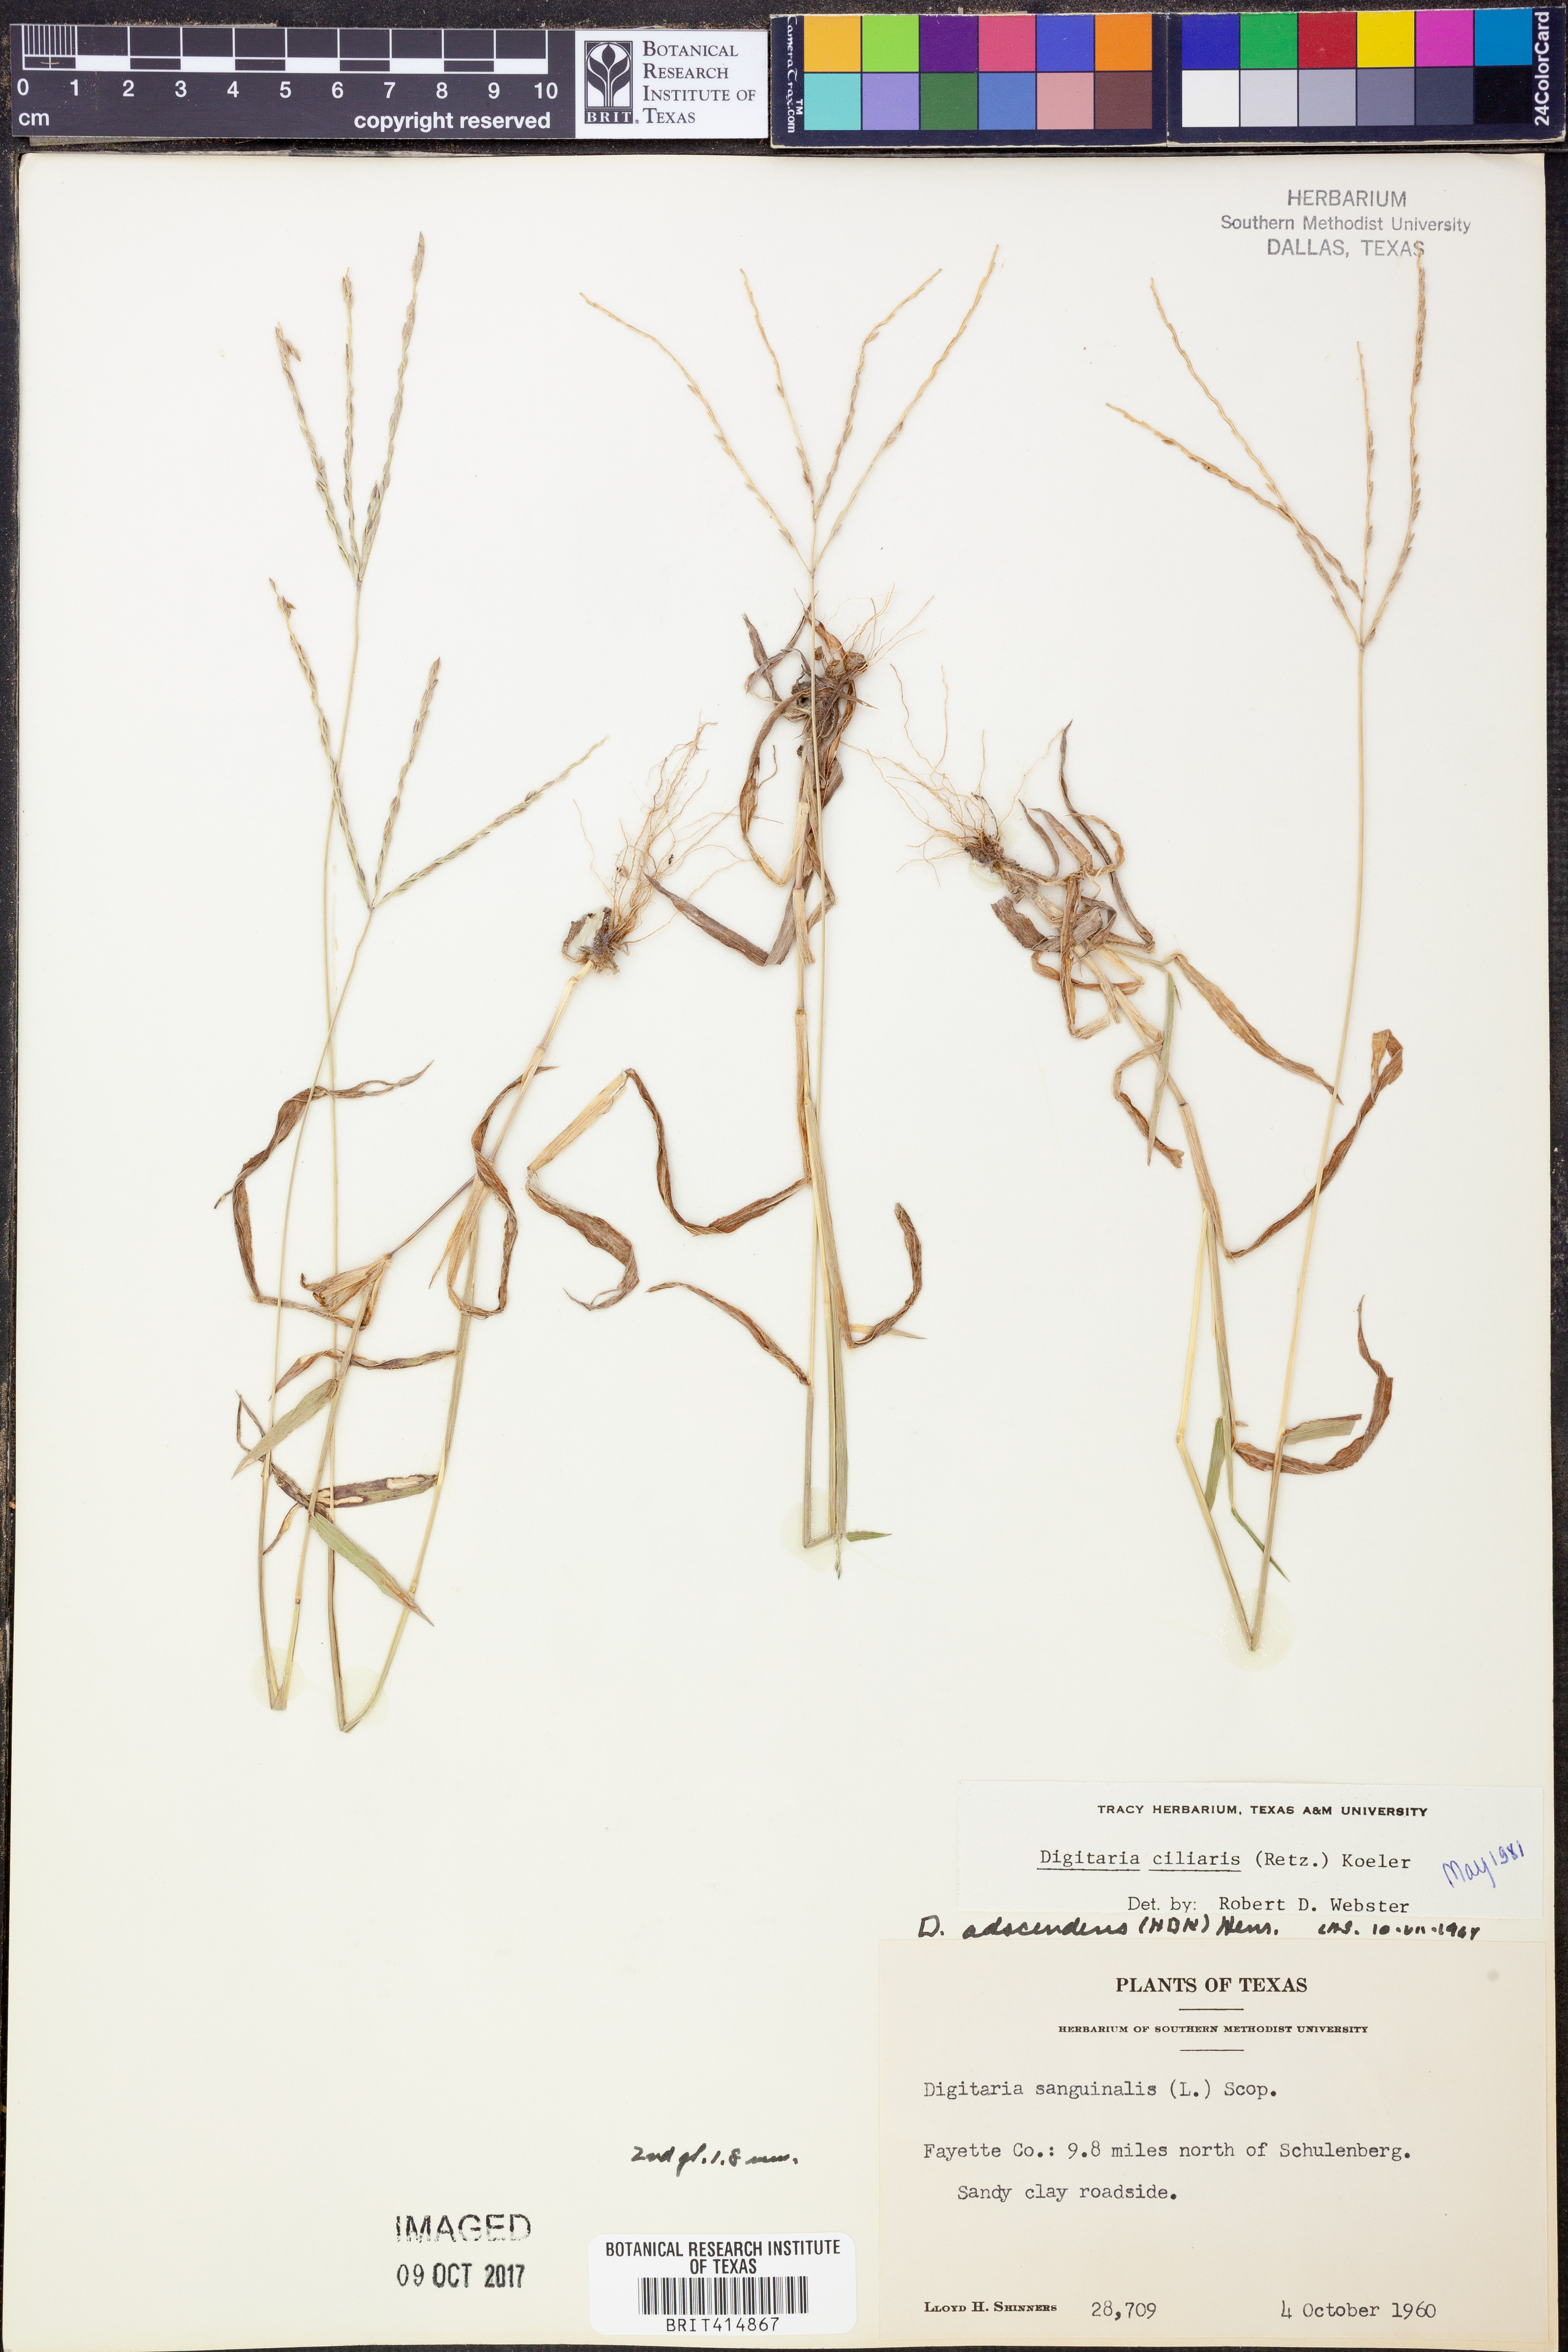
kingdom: Plantae
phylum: Tracheophyta
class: Liliopsida
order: Poales
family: Poaceae
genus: Digitaria
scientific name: Digitaria ciliaris
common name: Tropical finger-grass
